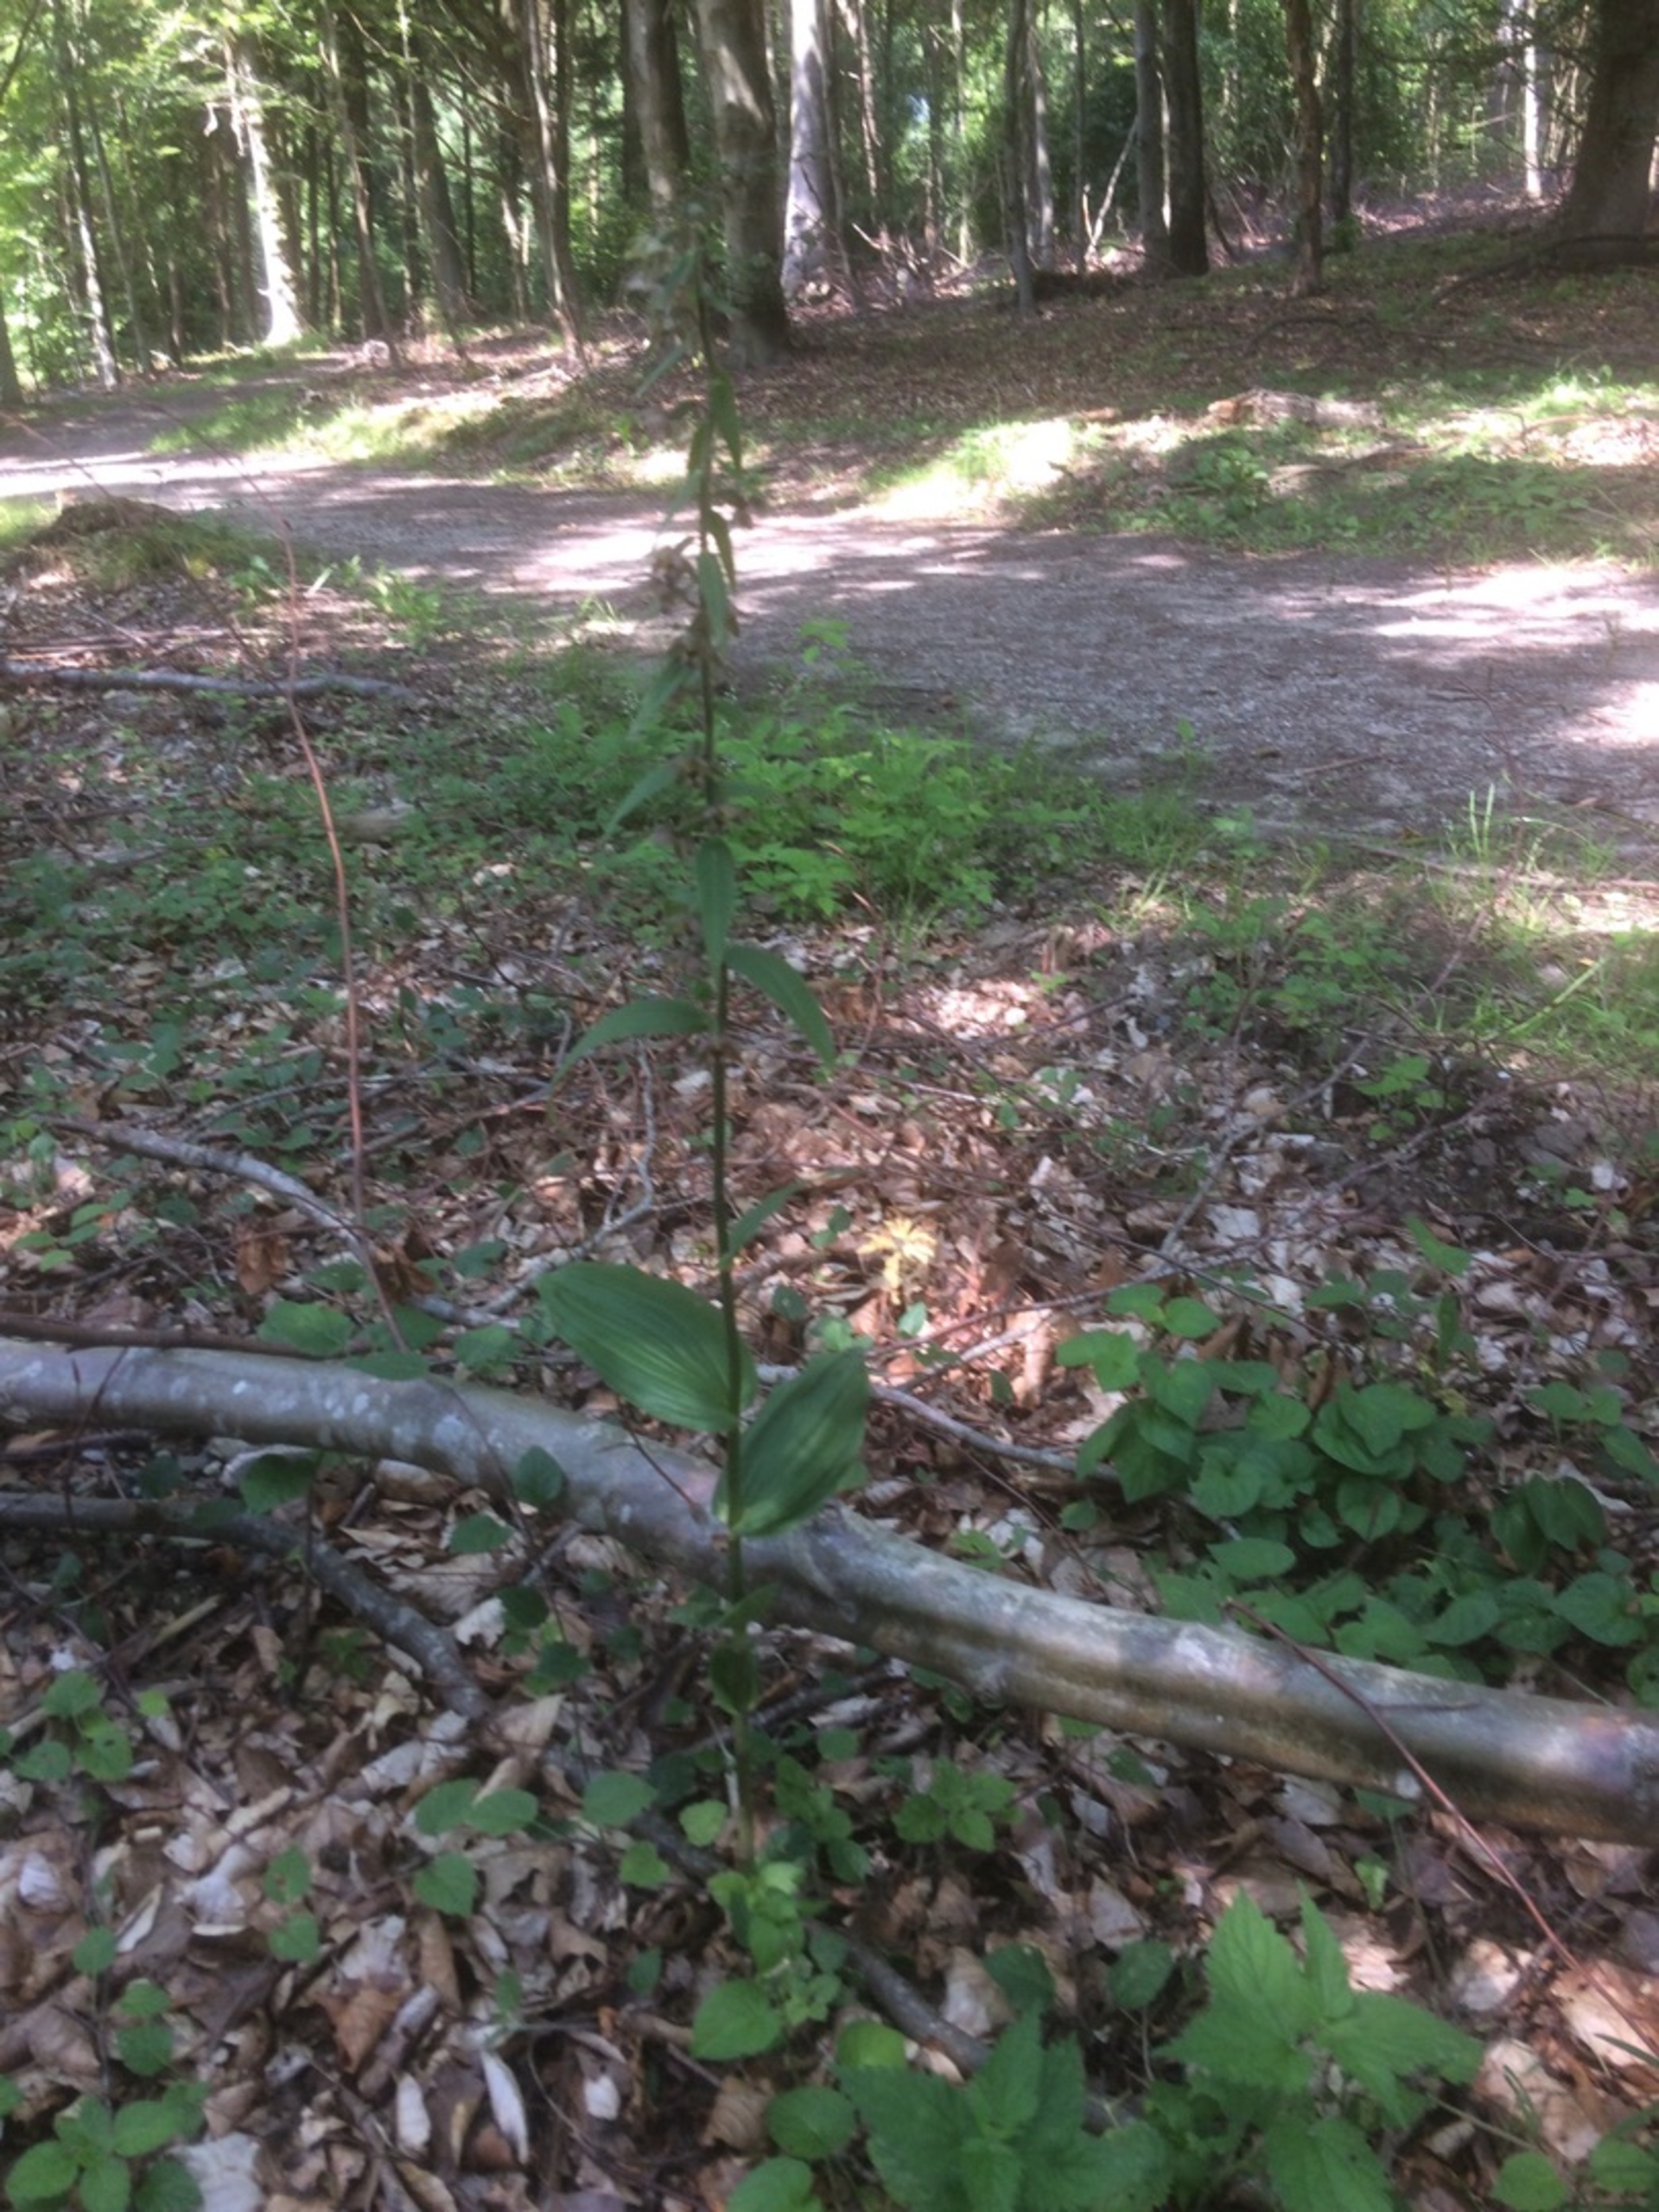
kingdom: Plantae
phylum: Tracheophyta
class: Liliopsida
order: Asparagales
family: Orchidaceae
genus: Epipactis
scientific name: Epipactis helleborine
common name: Skov-hullæbe
